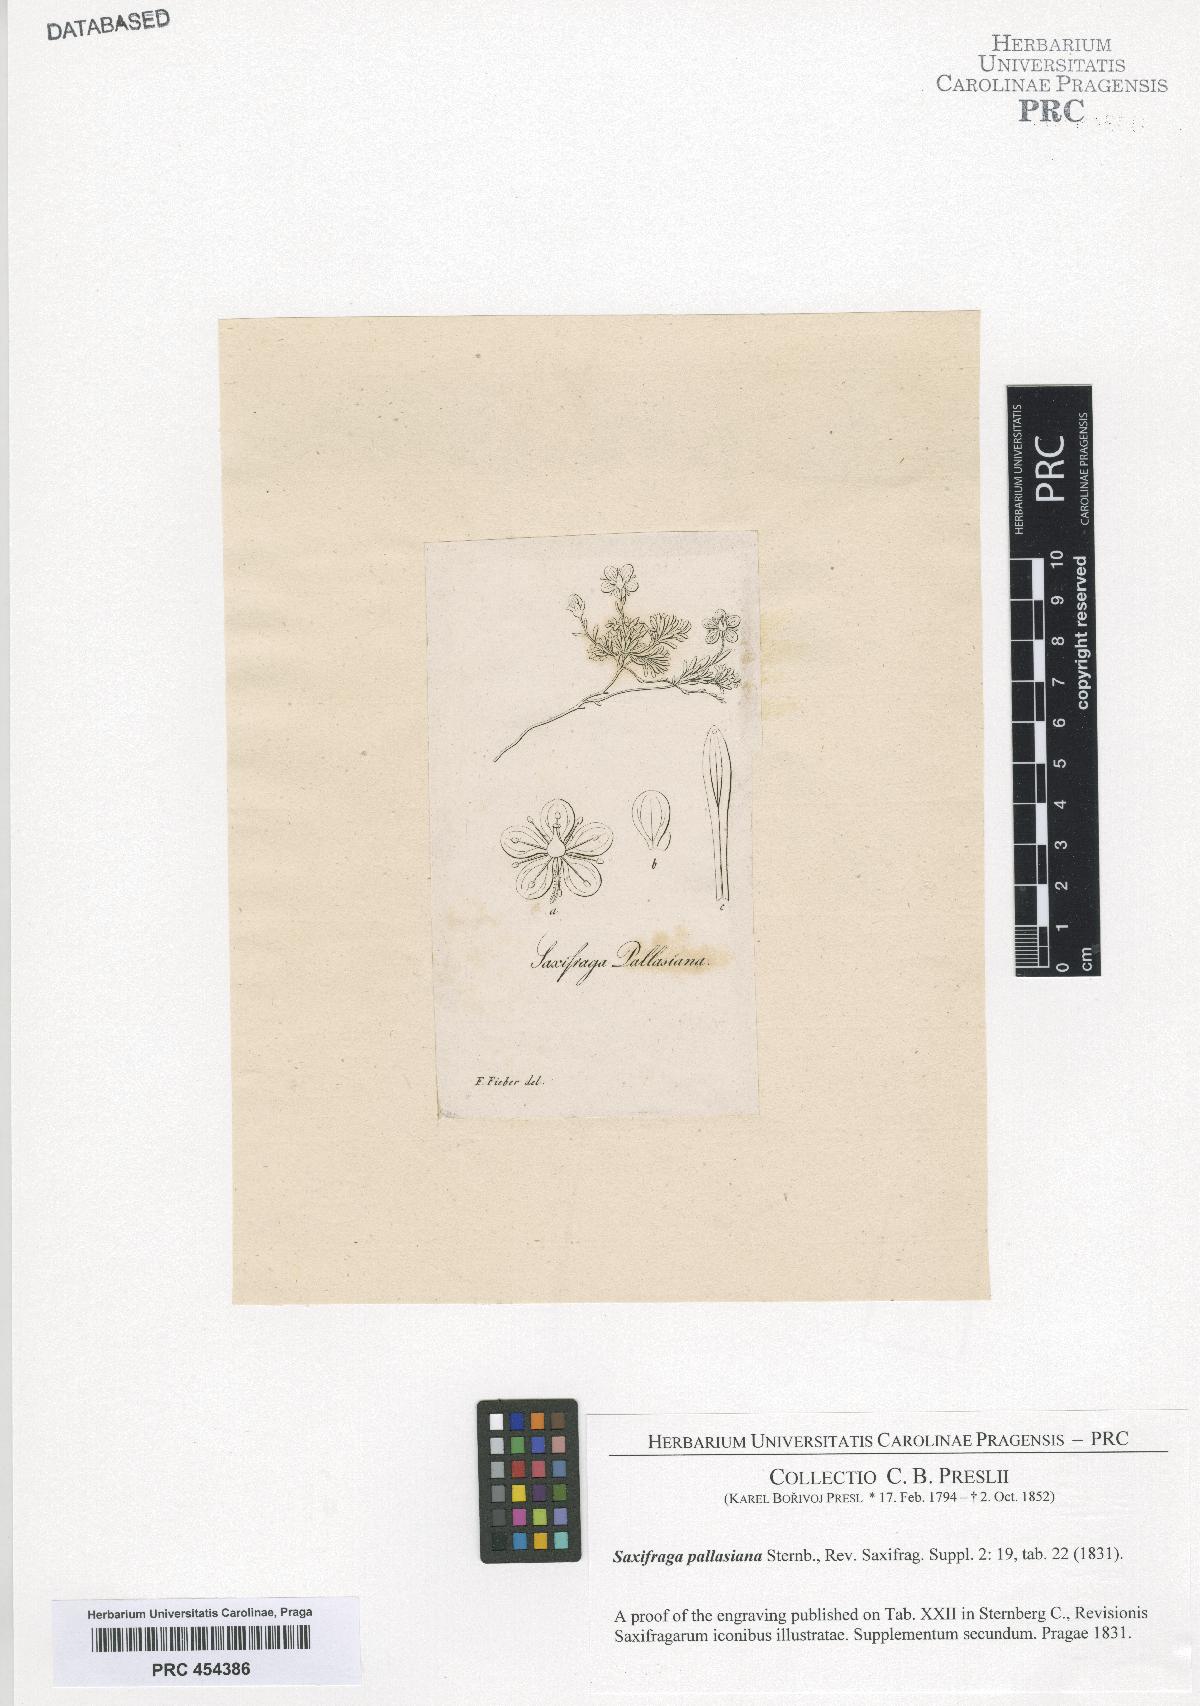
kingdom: Plantae
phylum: Tracheophyta
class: Magnoliopsida
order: Saxifragales
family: Saxifragaceae
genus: Saxifraga
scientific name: Saxifraga serpyllifolia
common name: Thyme-leaved saxifrage
